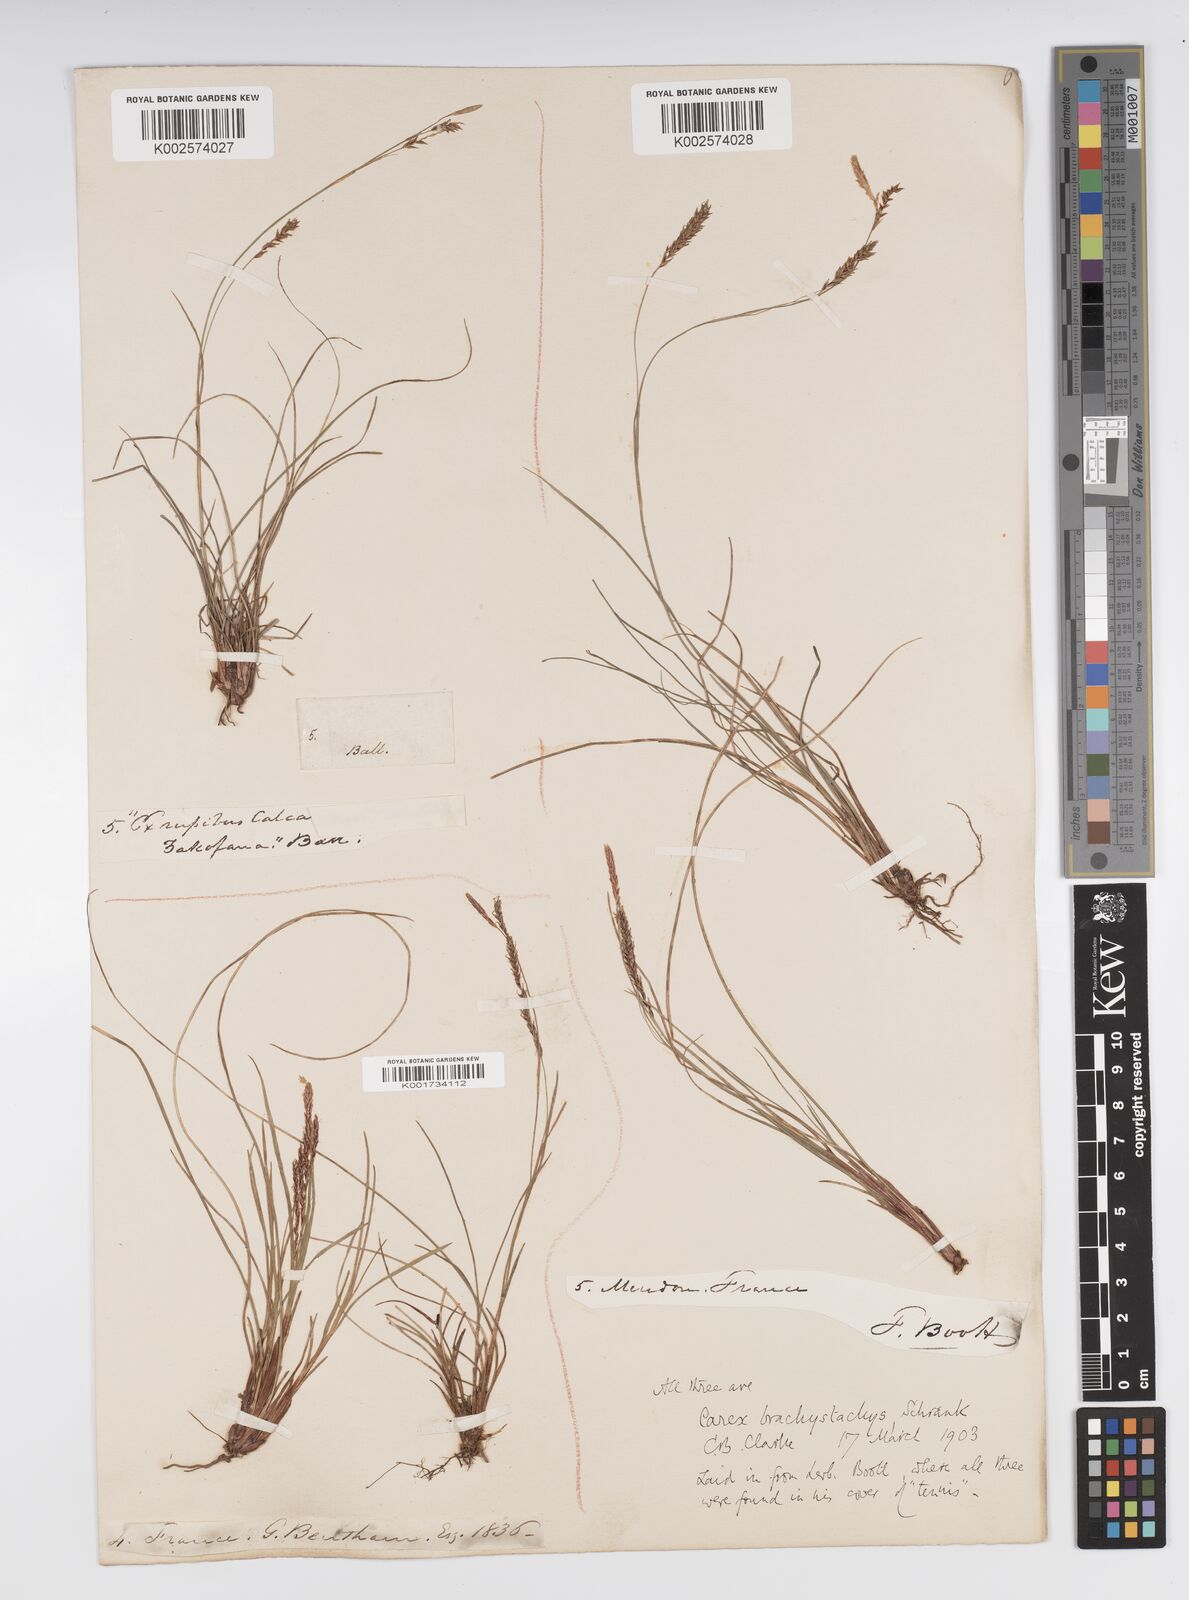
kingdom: Plantae
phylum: Tracheophyta
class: Liliopsida
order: Poales
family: Cyperaceae
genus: Carex
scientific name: Carex brachystachys
